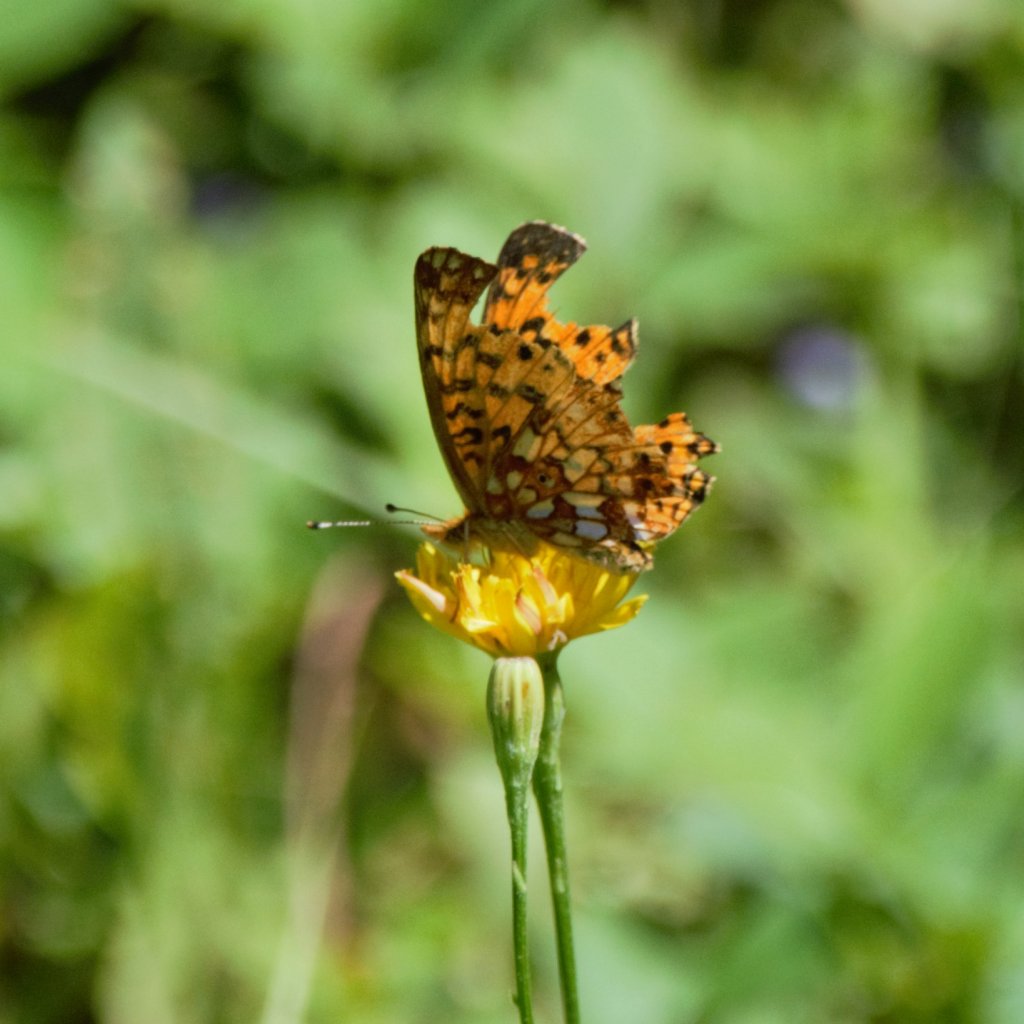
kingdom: Animalia
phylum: Arthropoda
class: Insecta
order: Lepidoptera
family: Nymphalidae
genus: Boloria
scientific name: Boloria selene
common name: Silver-bordered Fritillary
